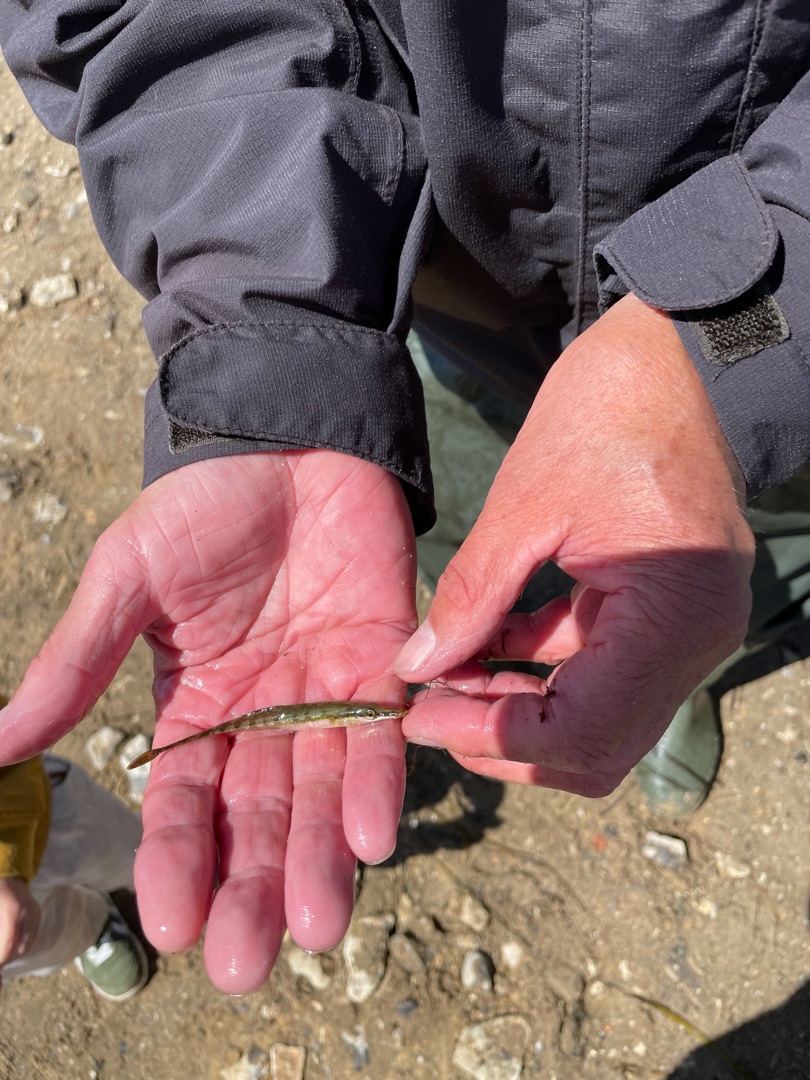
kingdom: Animalia
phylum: Chordata
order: Gasterosteiformes
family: Gasterosteidae
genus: Spinachia
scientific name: Spinachia spinachia
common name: Tangsnarre
